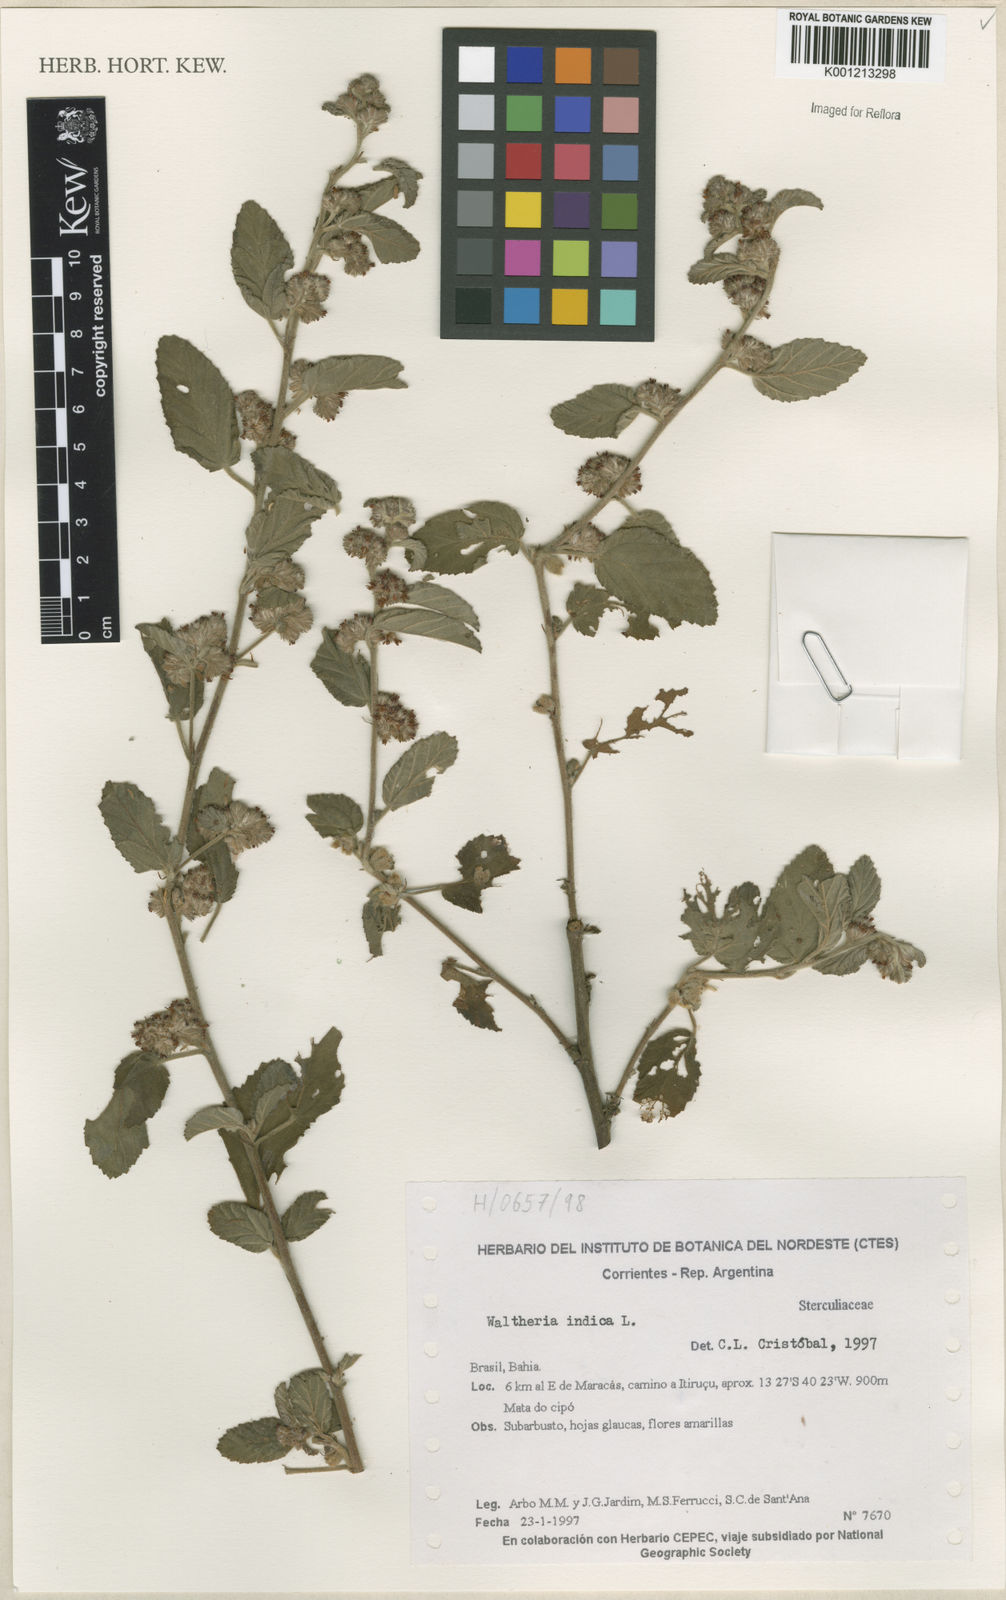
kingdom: Plantae
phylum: Tracheophyta
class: Magnoliopsida
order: Malvales
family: Malvaceae
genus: Waltheria
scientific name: Waltheria indica
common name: Leather-coat
